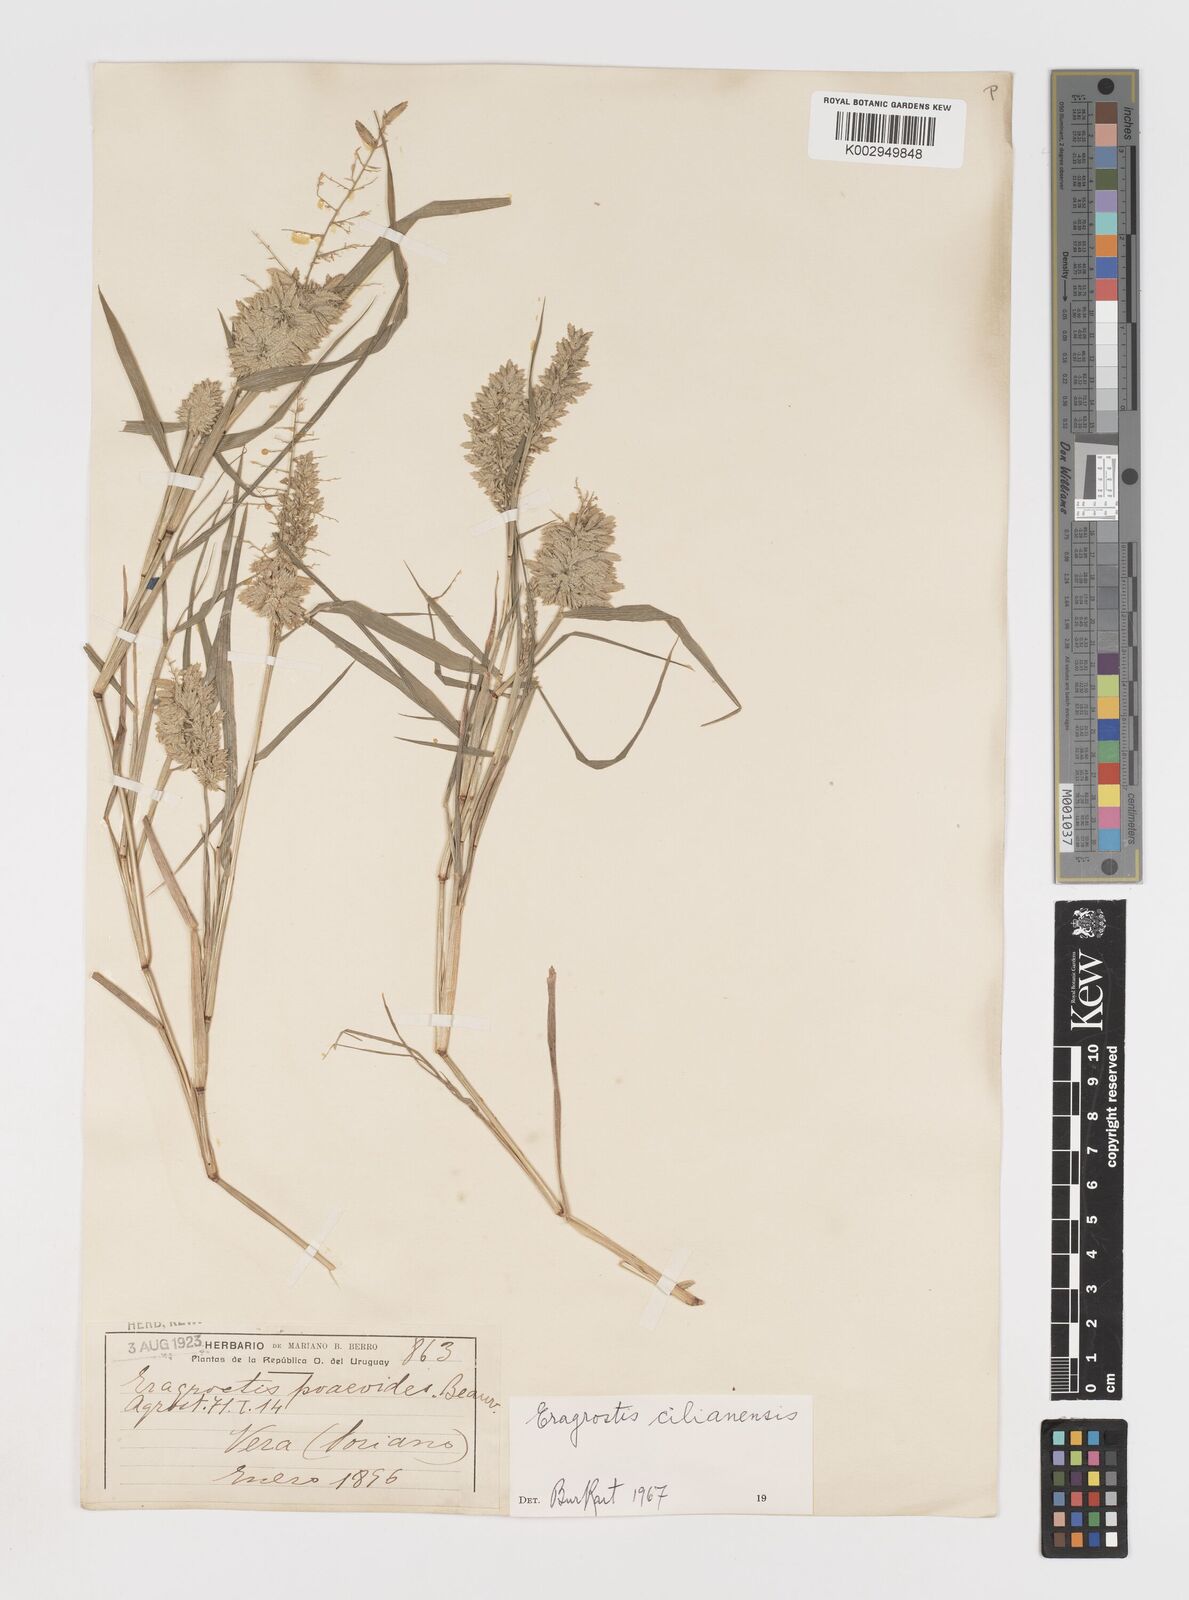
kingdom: Plantae
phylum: Tracheophyta
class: Liliopsida
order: Poales
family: Poaceae
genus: Eragrostis
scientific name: Eragrostis cilianensis
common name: Stinkgrass
